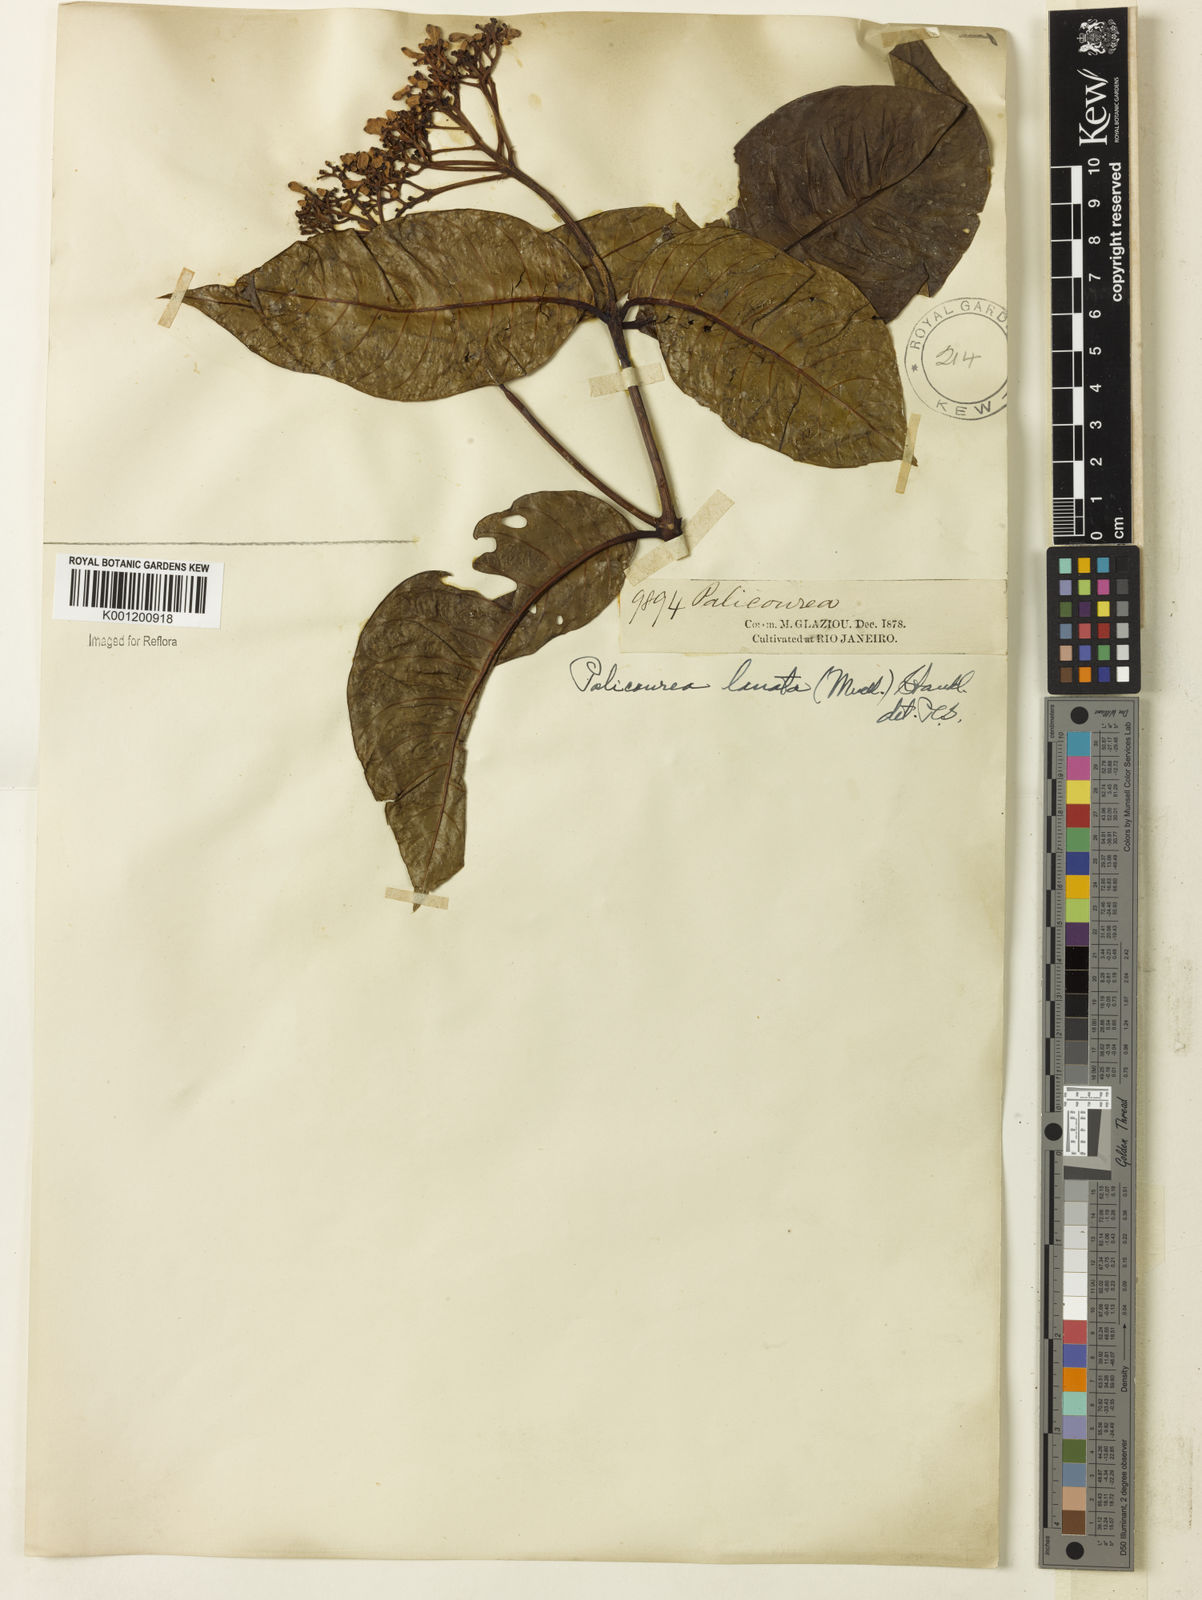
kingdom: Plantae
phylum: Tracheophyta
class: Magnoliopsida
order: Gentianales
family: Rubiaceae
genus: Palicourea
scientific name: Palicourea
